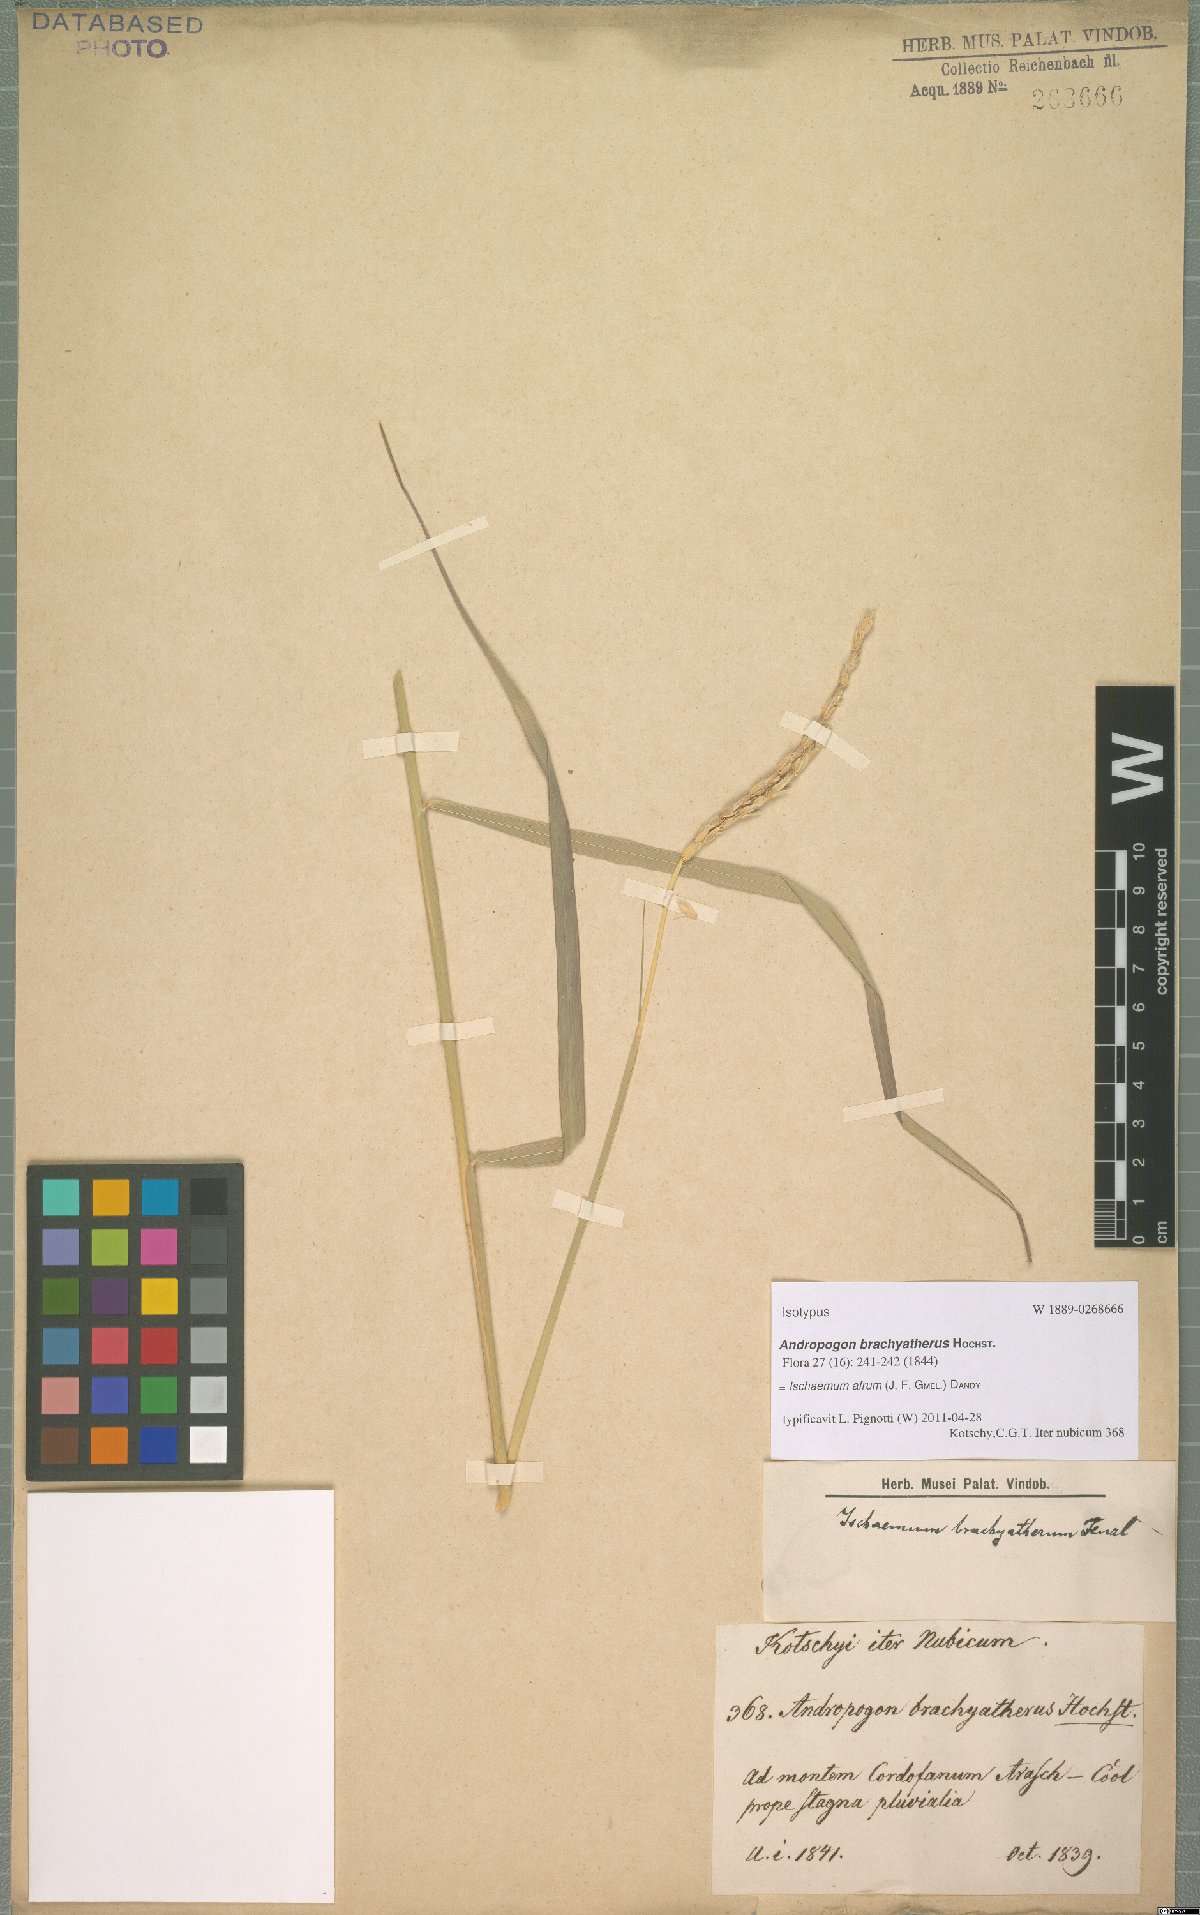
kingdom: Plantae
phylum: Tracheophyta
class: Liliopsida
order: Poales
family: Poaceae
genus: Ischaemum
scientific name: Ischaemum afrum
